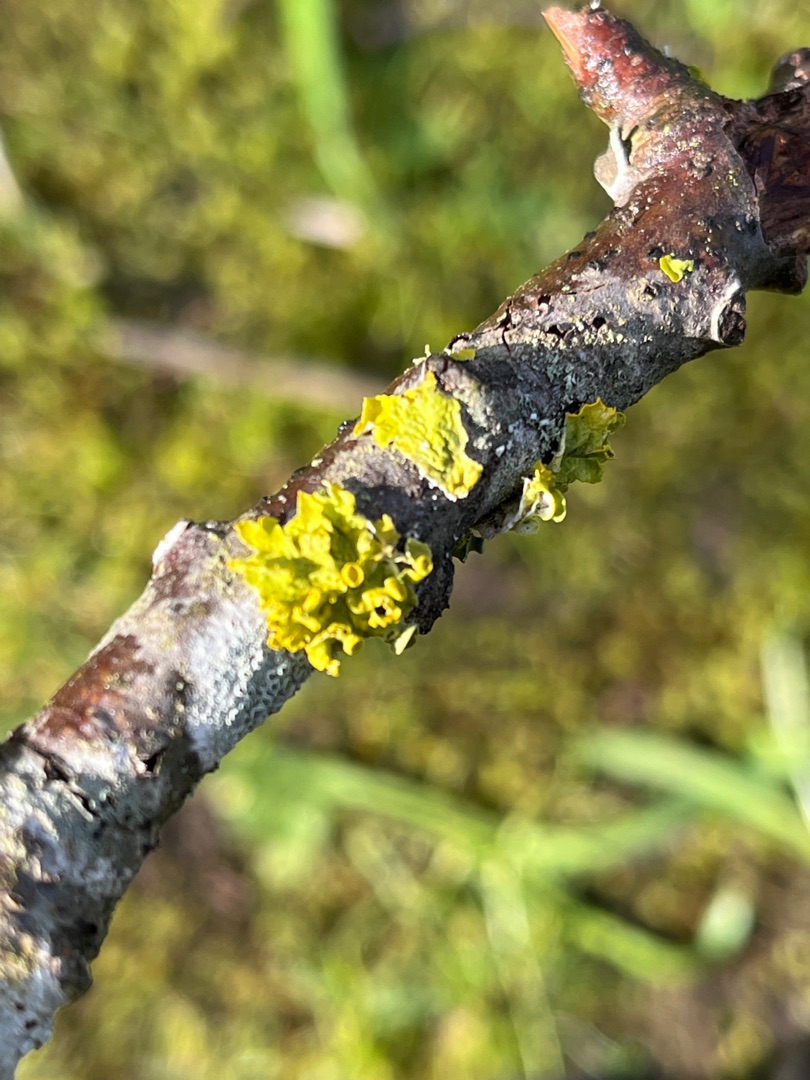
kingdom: Fungi
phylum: Ascomycota
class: Lecanoromycetes
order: Teloschistales
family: Teloschistaceae
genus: Xanthoria
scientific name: Xanthoria parietina
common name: Almindelig væggelav
